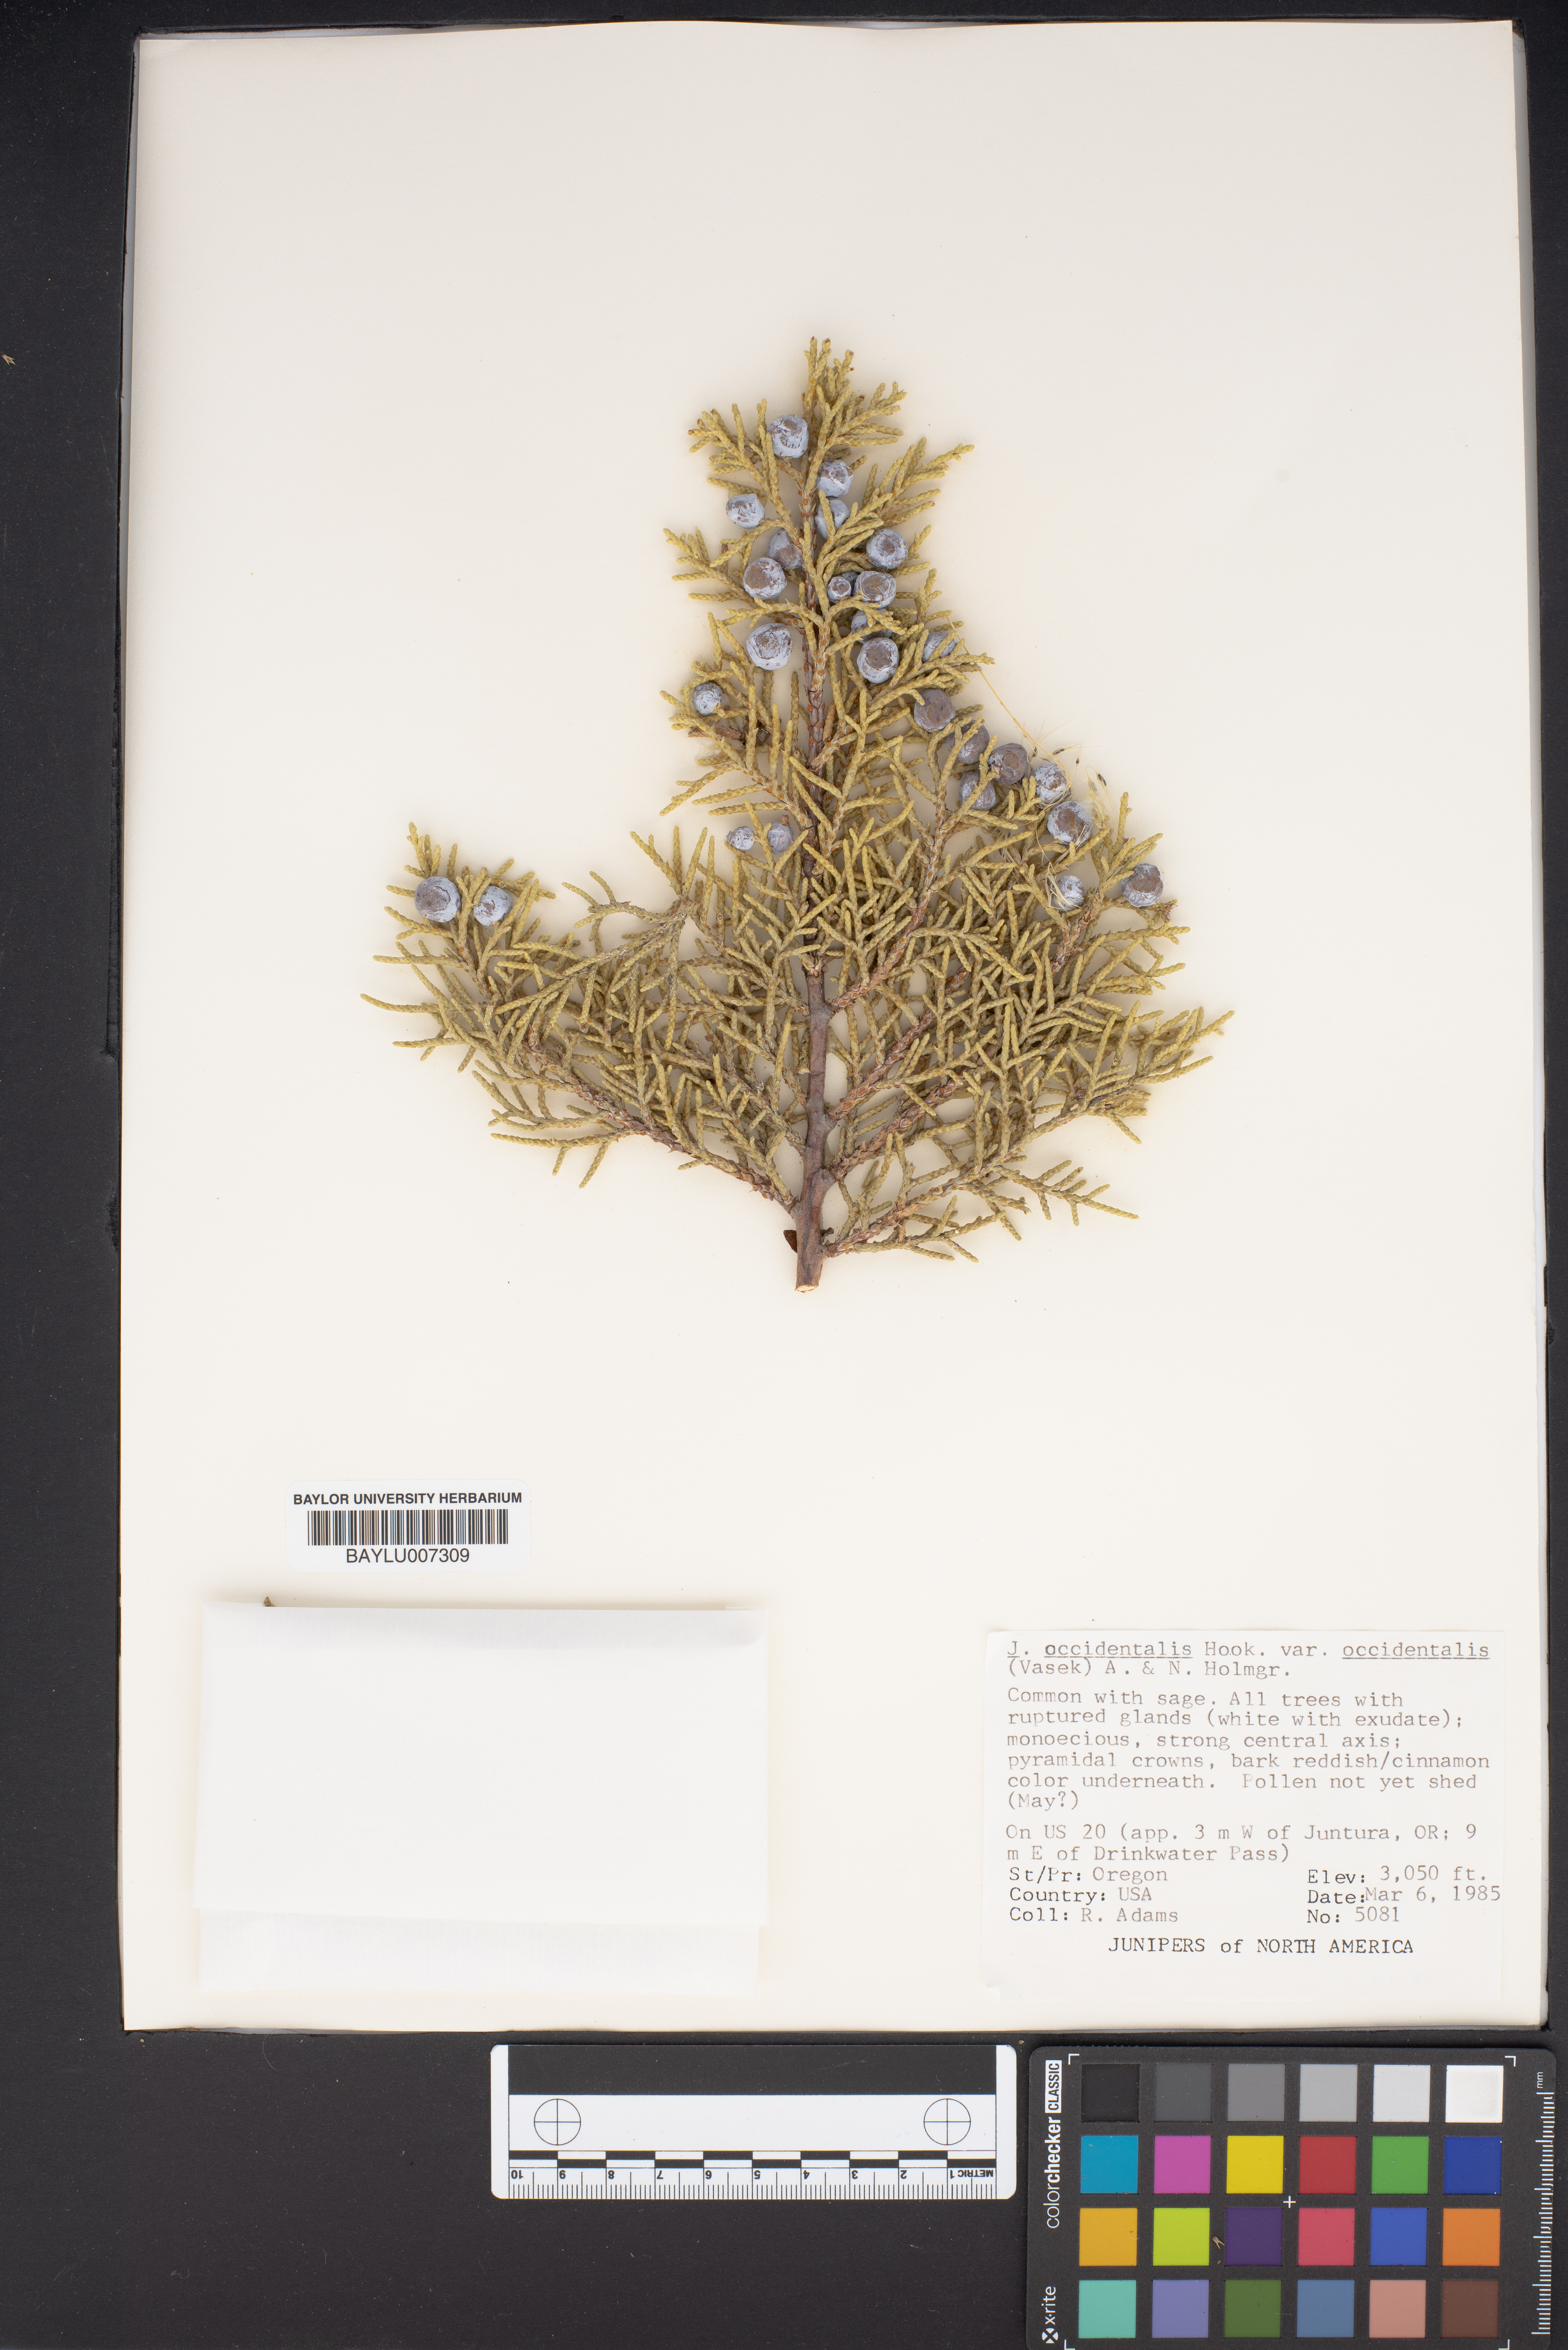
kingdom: Plantae
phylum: Tracheophyta
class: Pinopsida
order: Pinales
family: Cupressaceae
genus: Juniperus
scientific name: Juniperus occidentalis
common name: Western juniper
